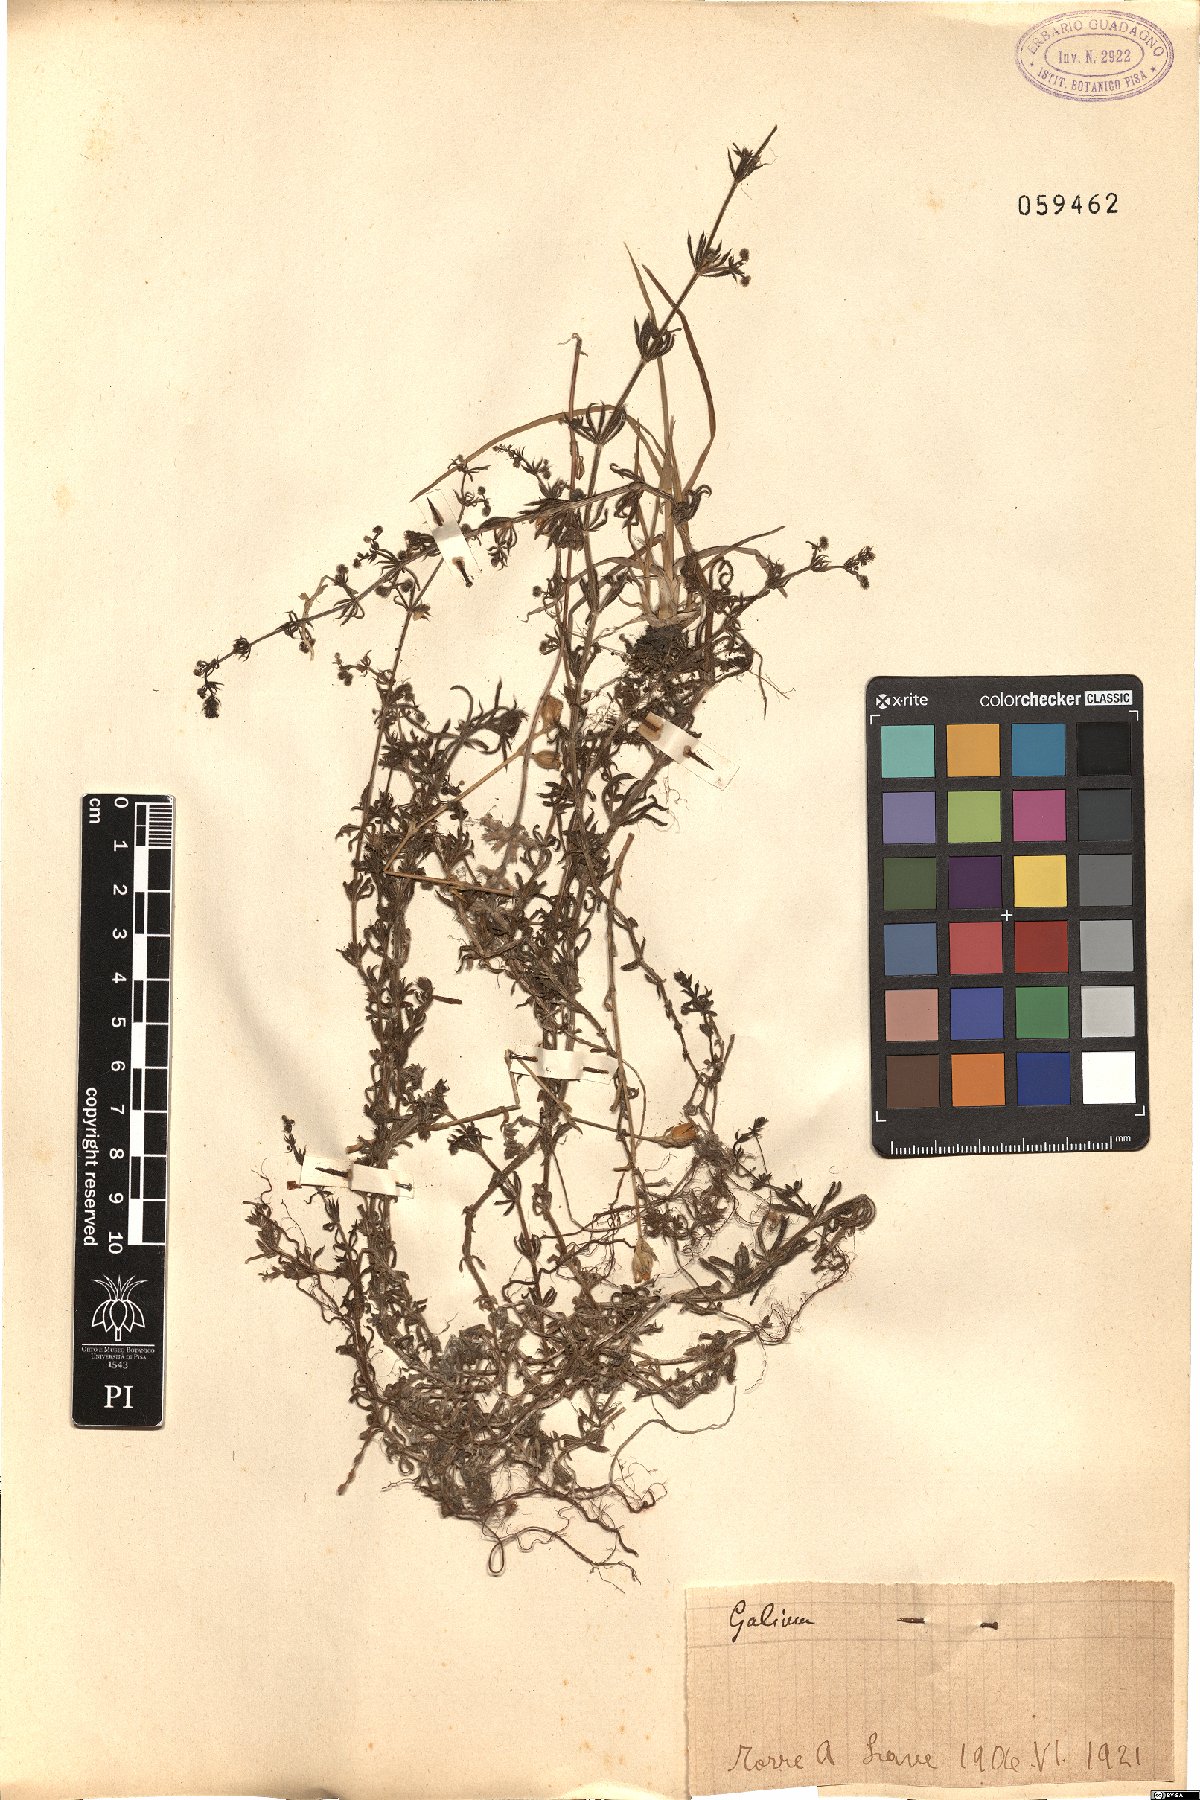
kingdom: Plantae
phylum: Tracheophyta
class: Magnoliopsida
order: Gentianales
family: Rubiaceae
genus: Galium
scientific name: Galium
